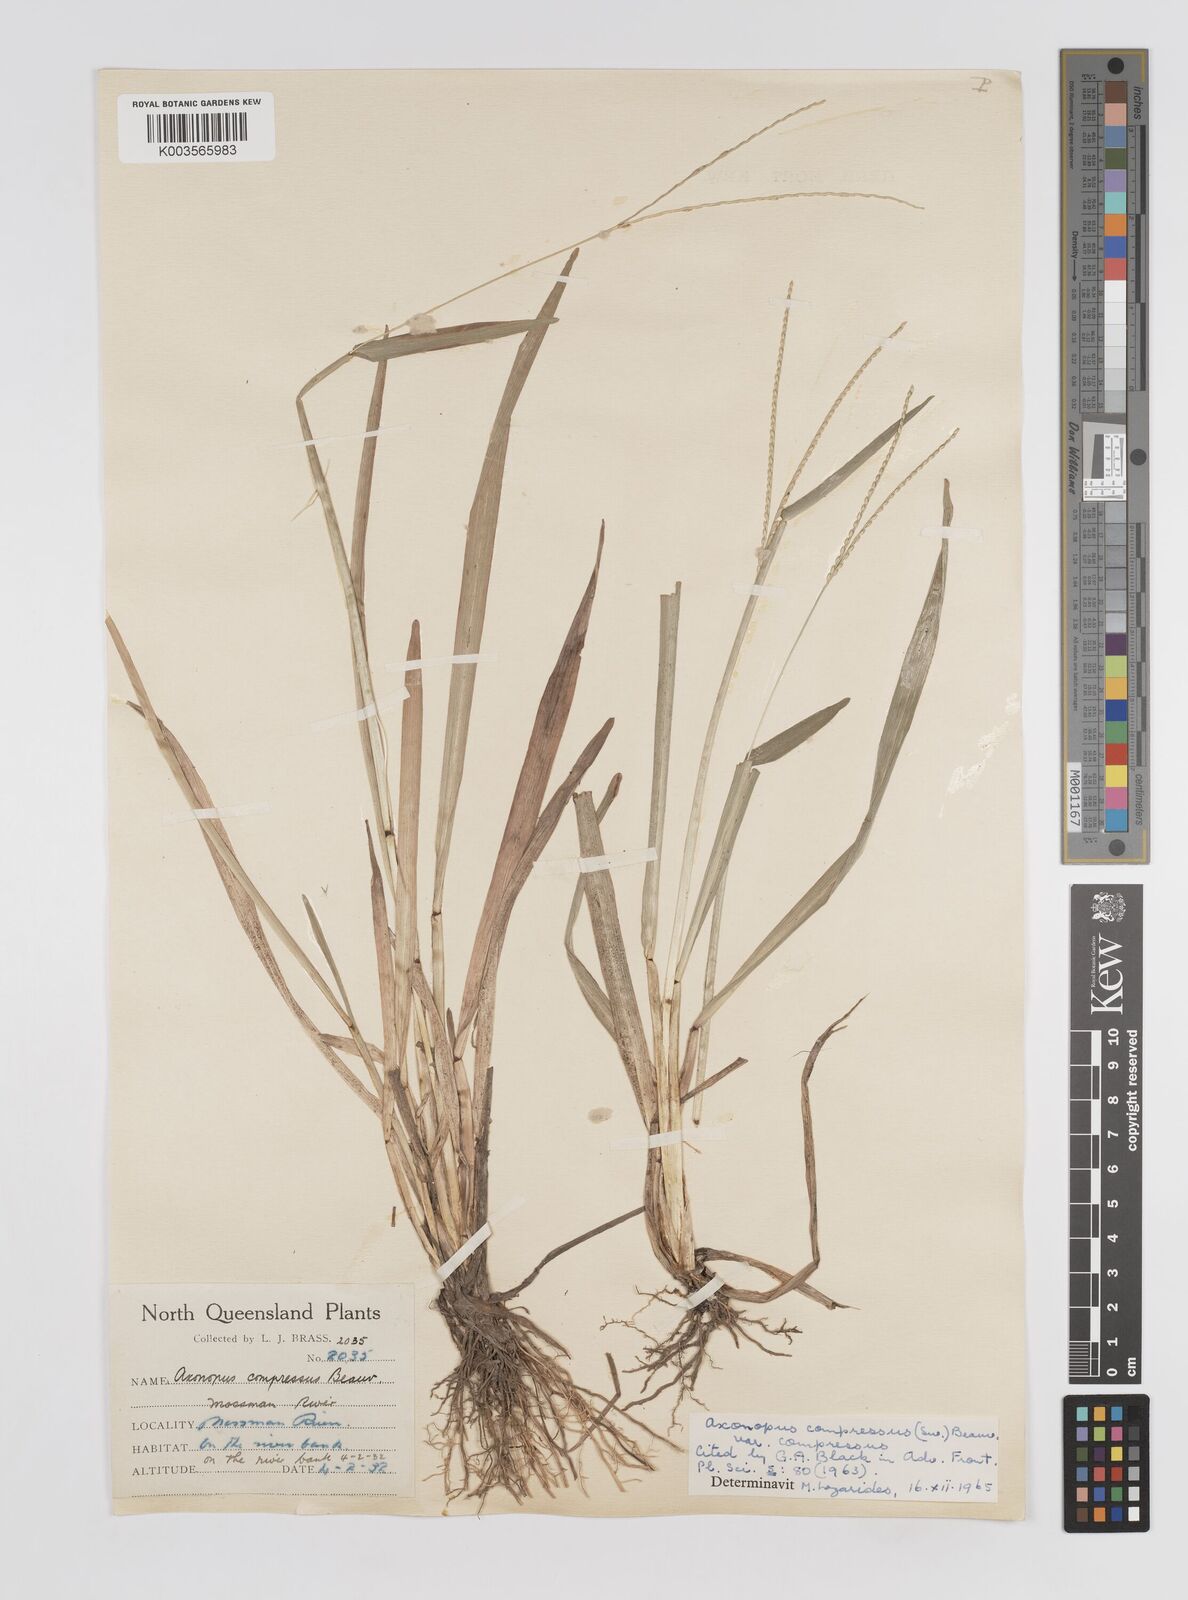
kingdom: Plantae
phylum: Tracheophyta
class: Liliopsida
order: Poales
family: Poaceae
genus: Axonopus
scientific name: Axonopus compressus
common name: American carpet grass
